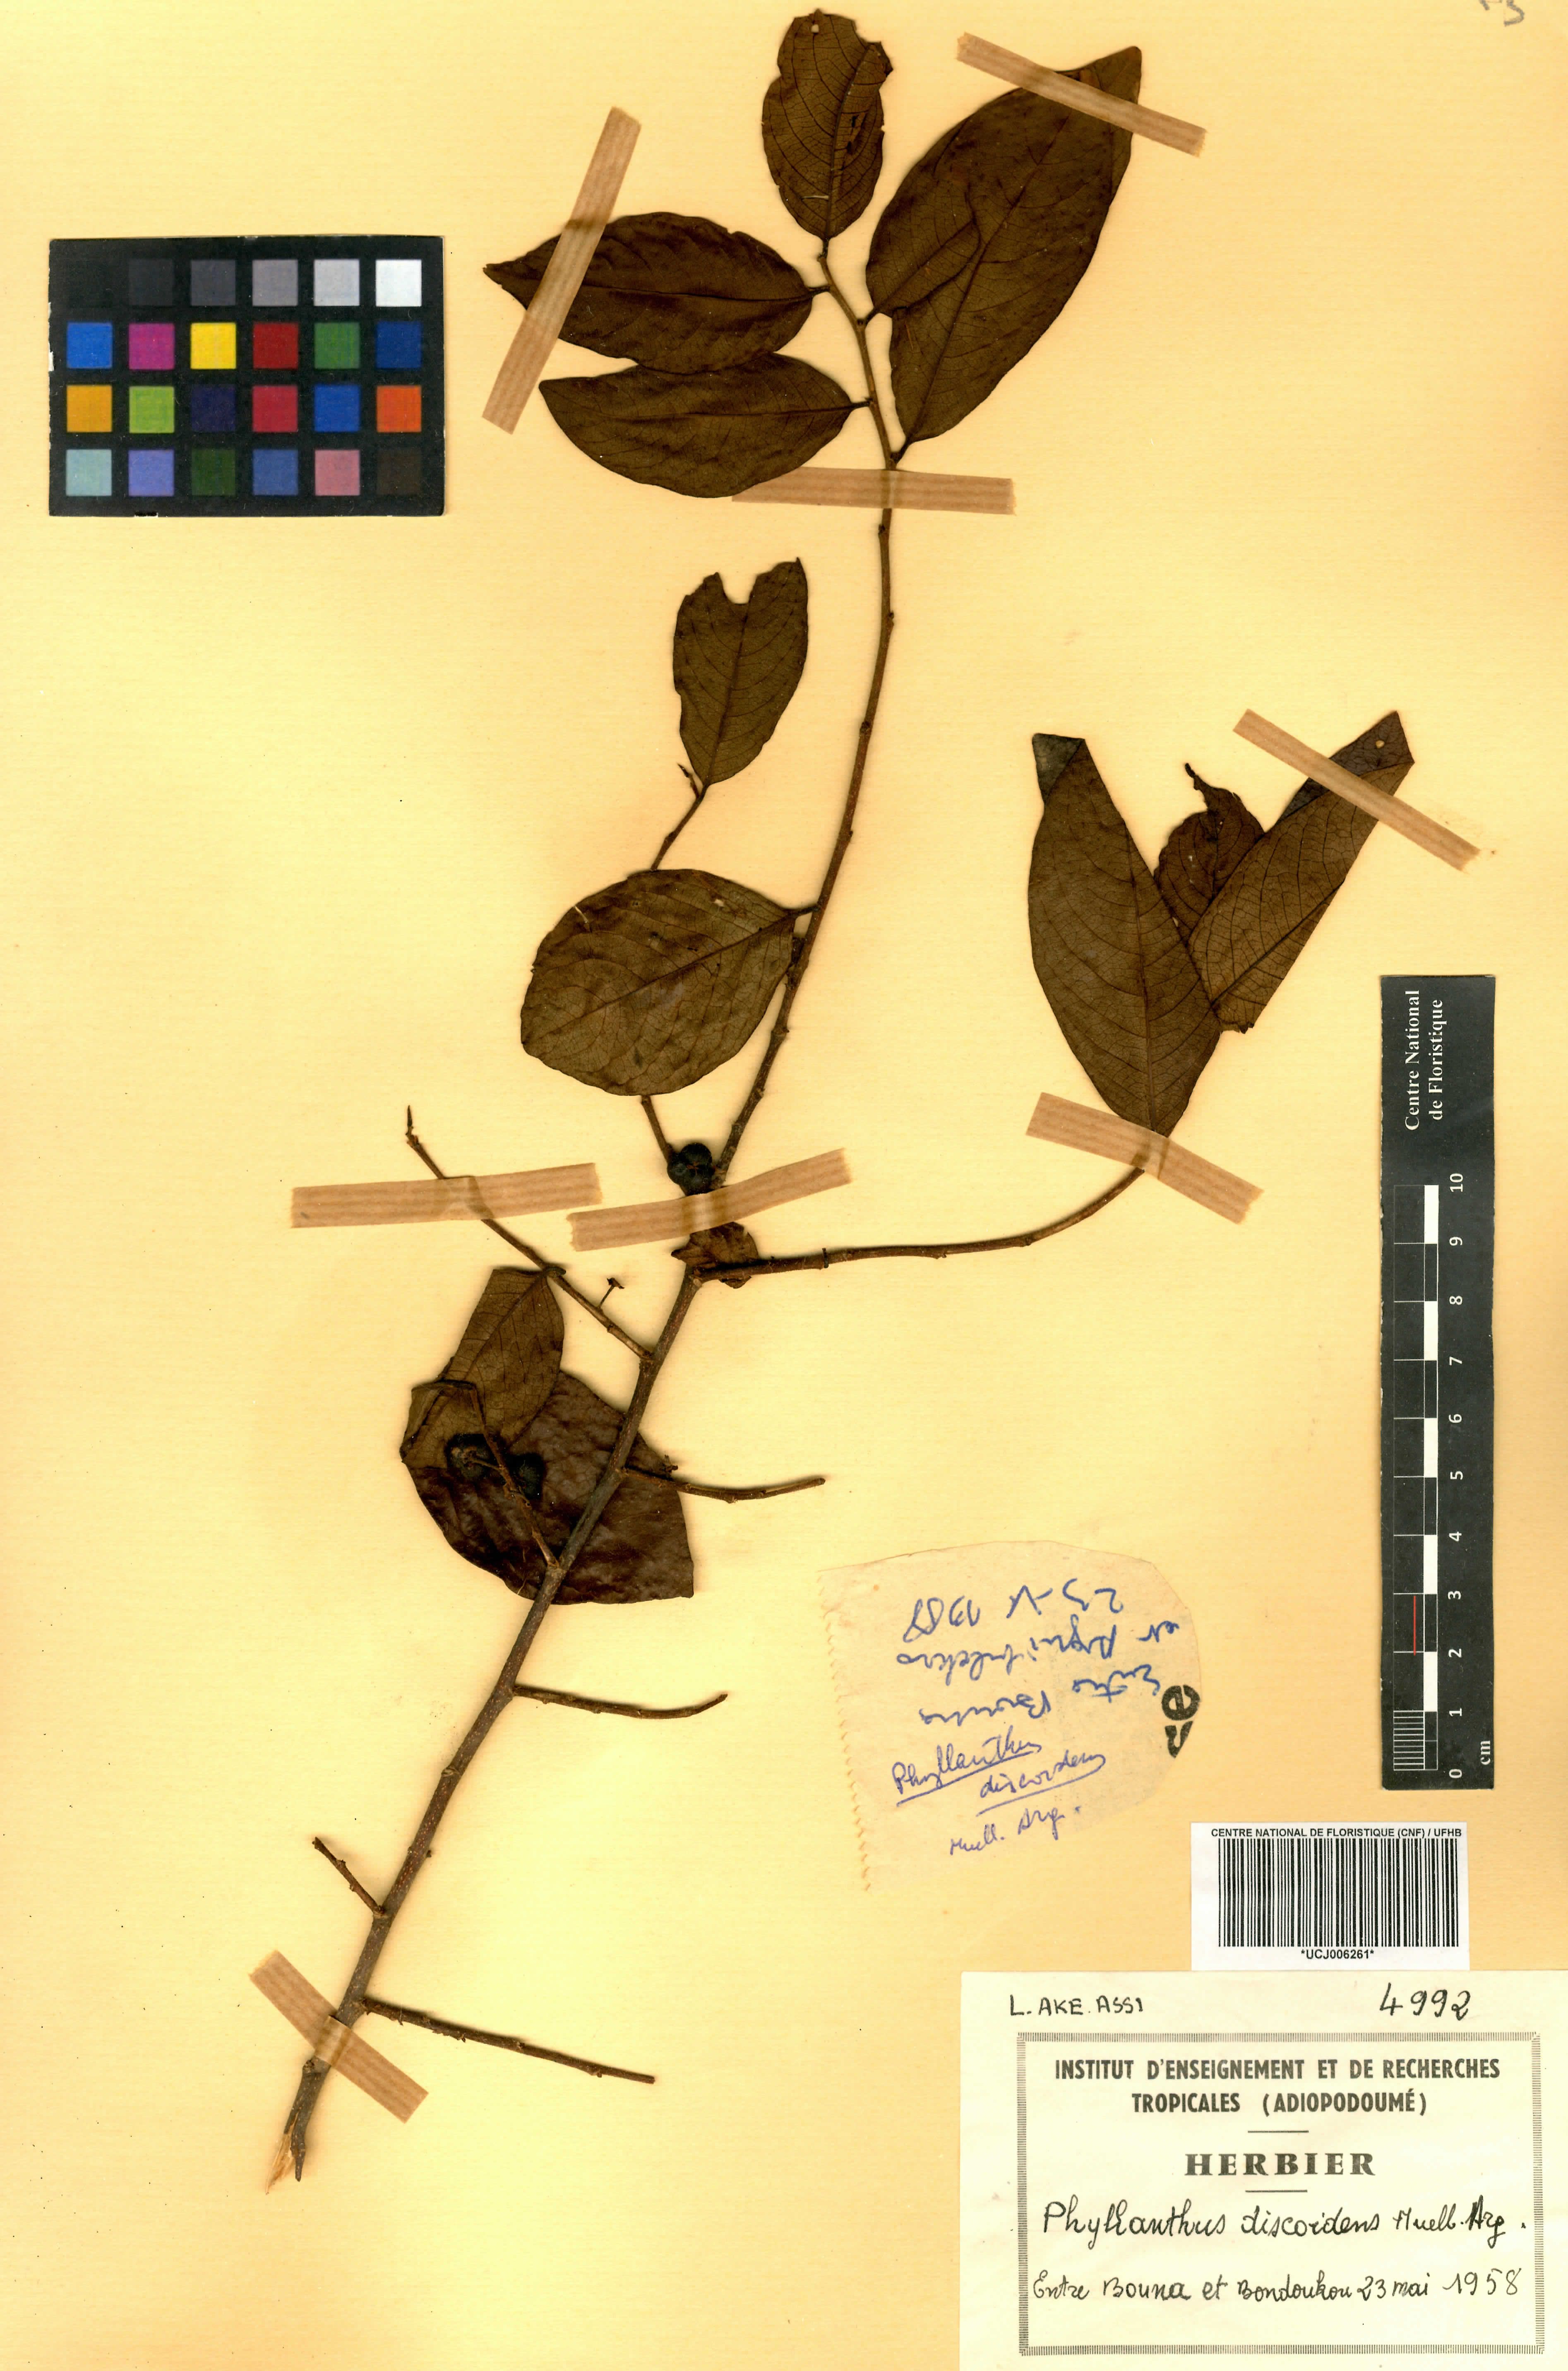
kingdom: Plantae
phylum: Tracheophyta
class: Magnoliopsida
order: Malpighiales
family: Phyllanthaceae
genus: Margaritaria
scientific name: Margaritaria discoidea
